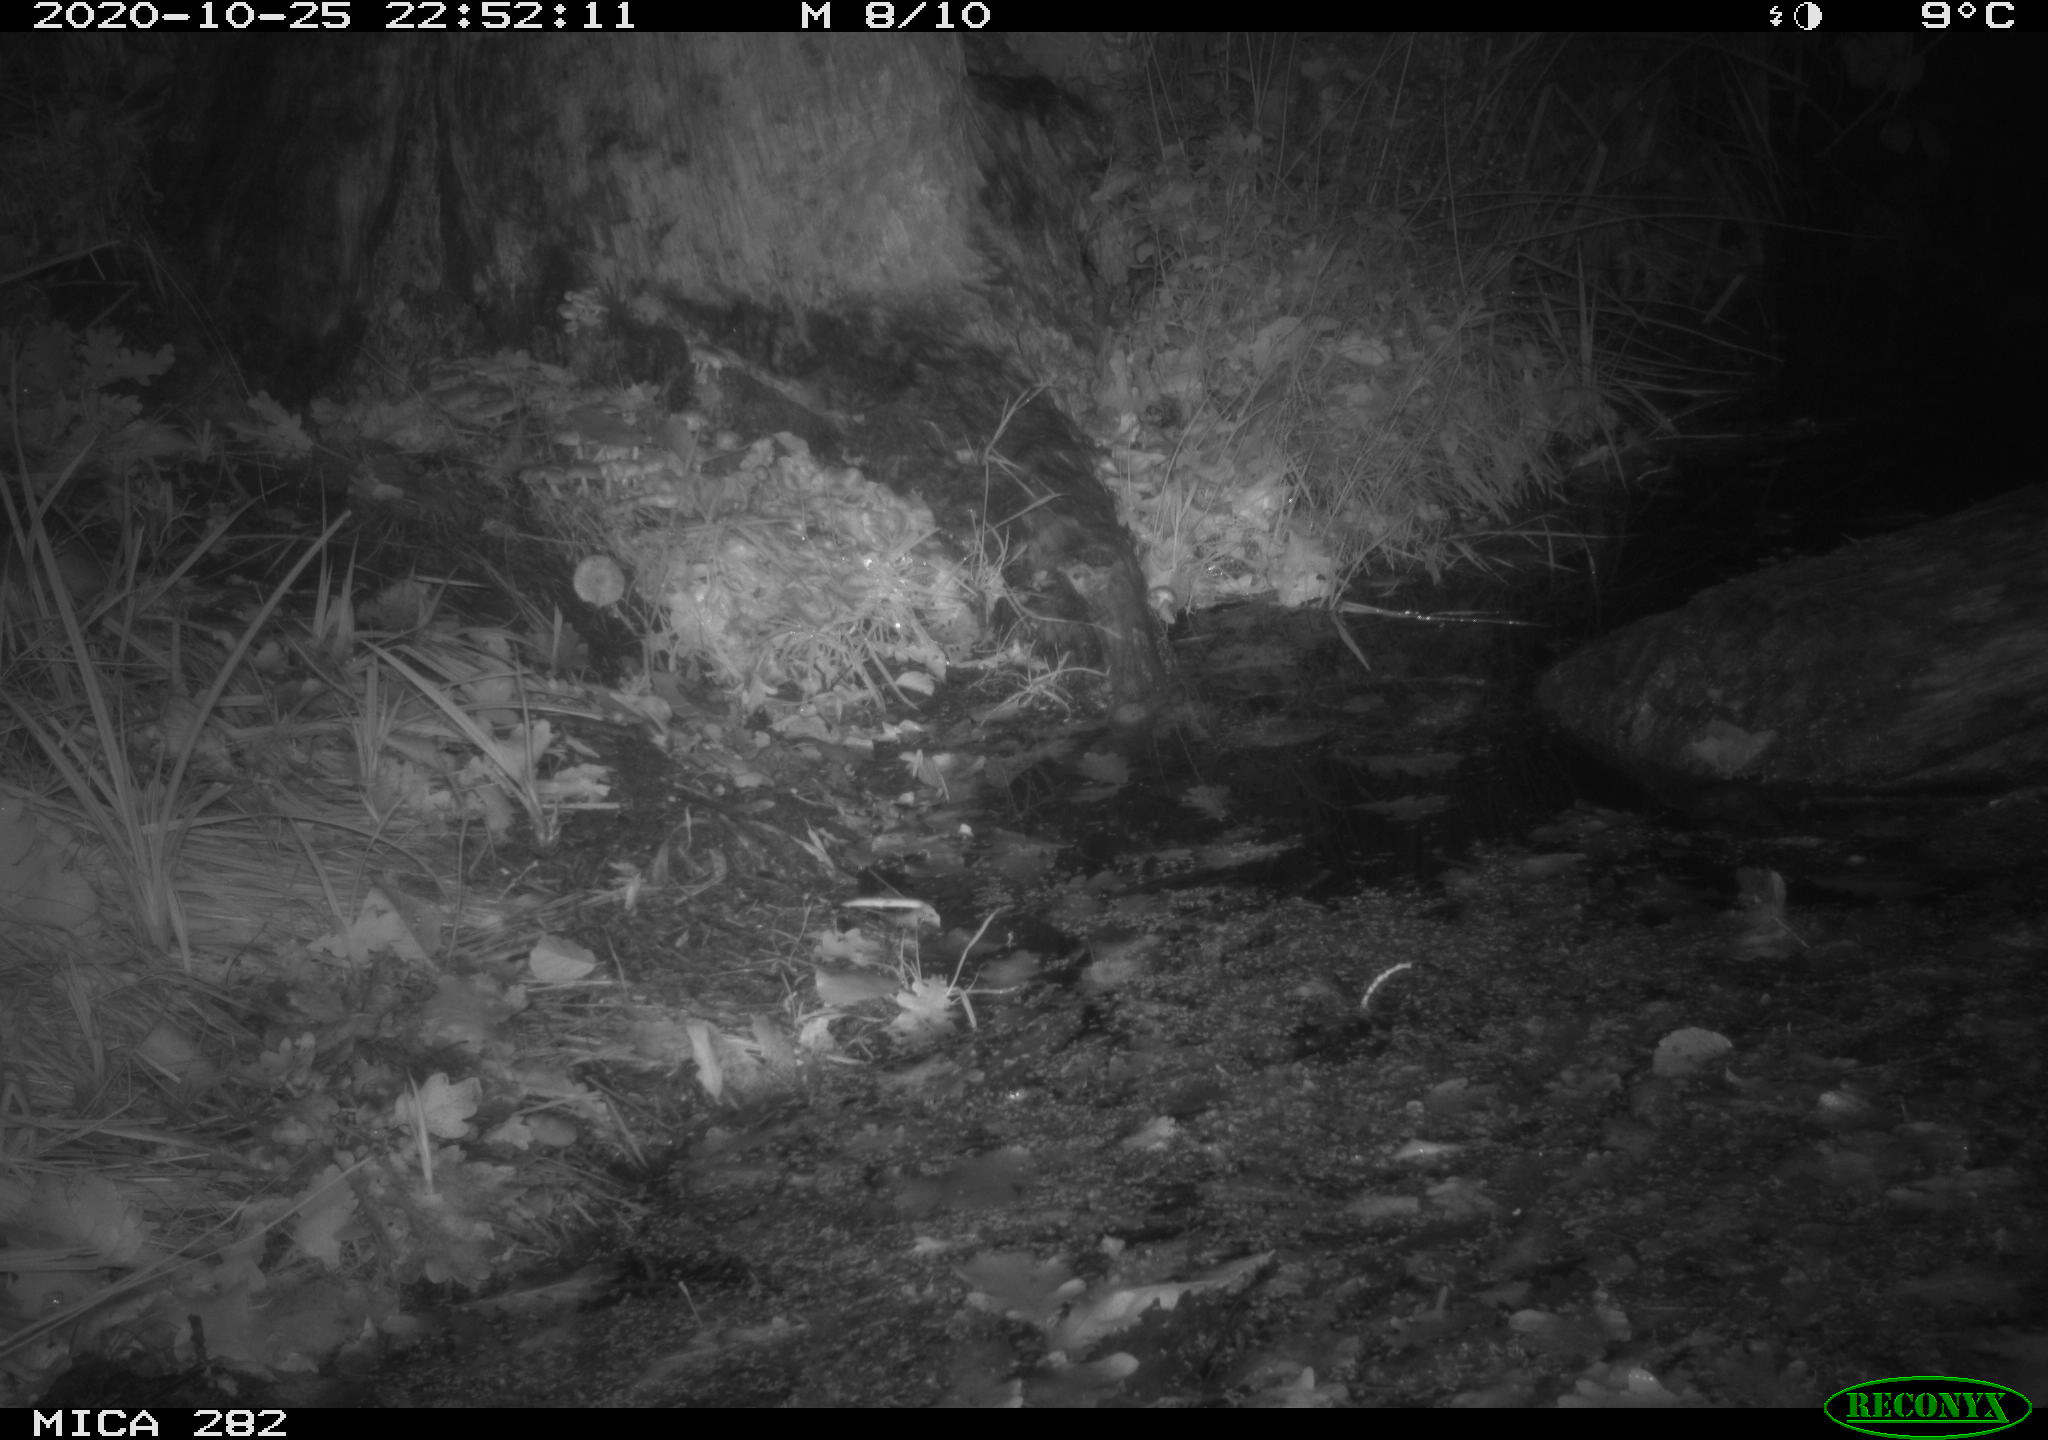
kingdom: Animalia
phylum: Chordata
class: Mammalia
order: Soricomorpha
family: Soricidae
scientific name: Soricidae
